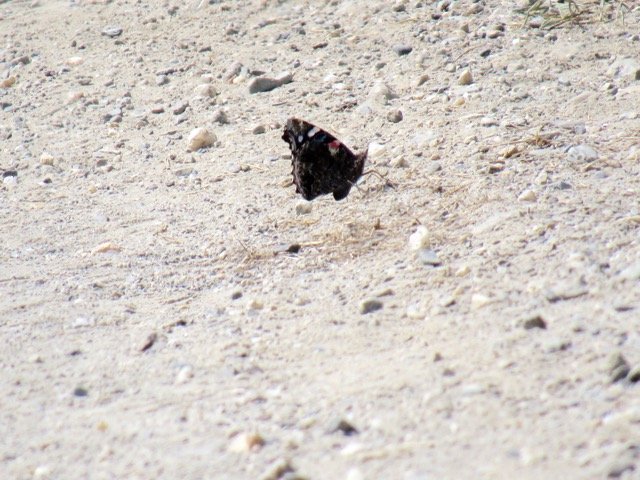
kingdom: Animalia
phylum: Arthropoda
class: Insecta
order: Lepidoptera
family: Nymphalidae
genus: Vanessa
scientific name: Vanessa atalanta
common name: Red Admiral
